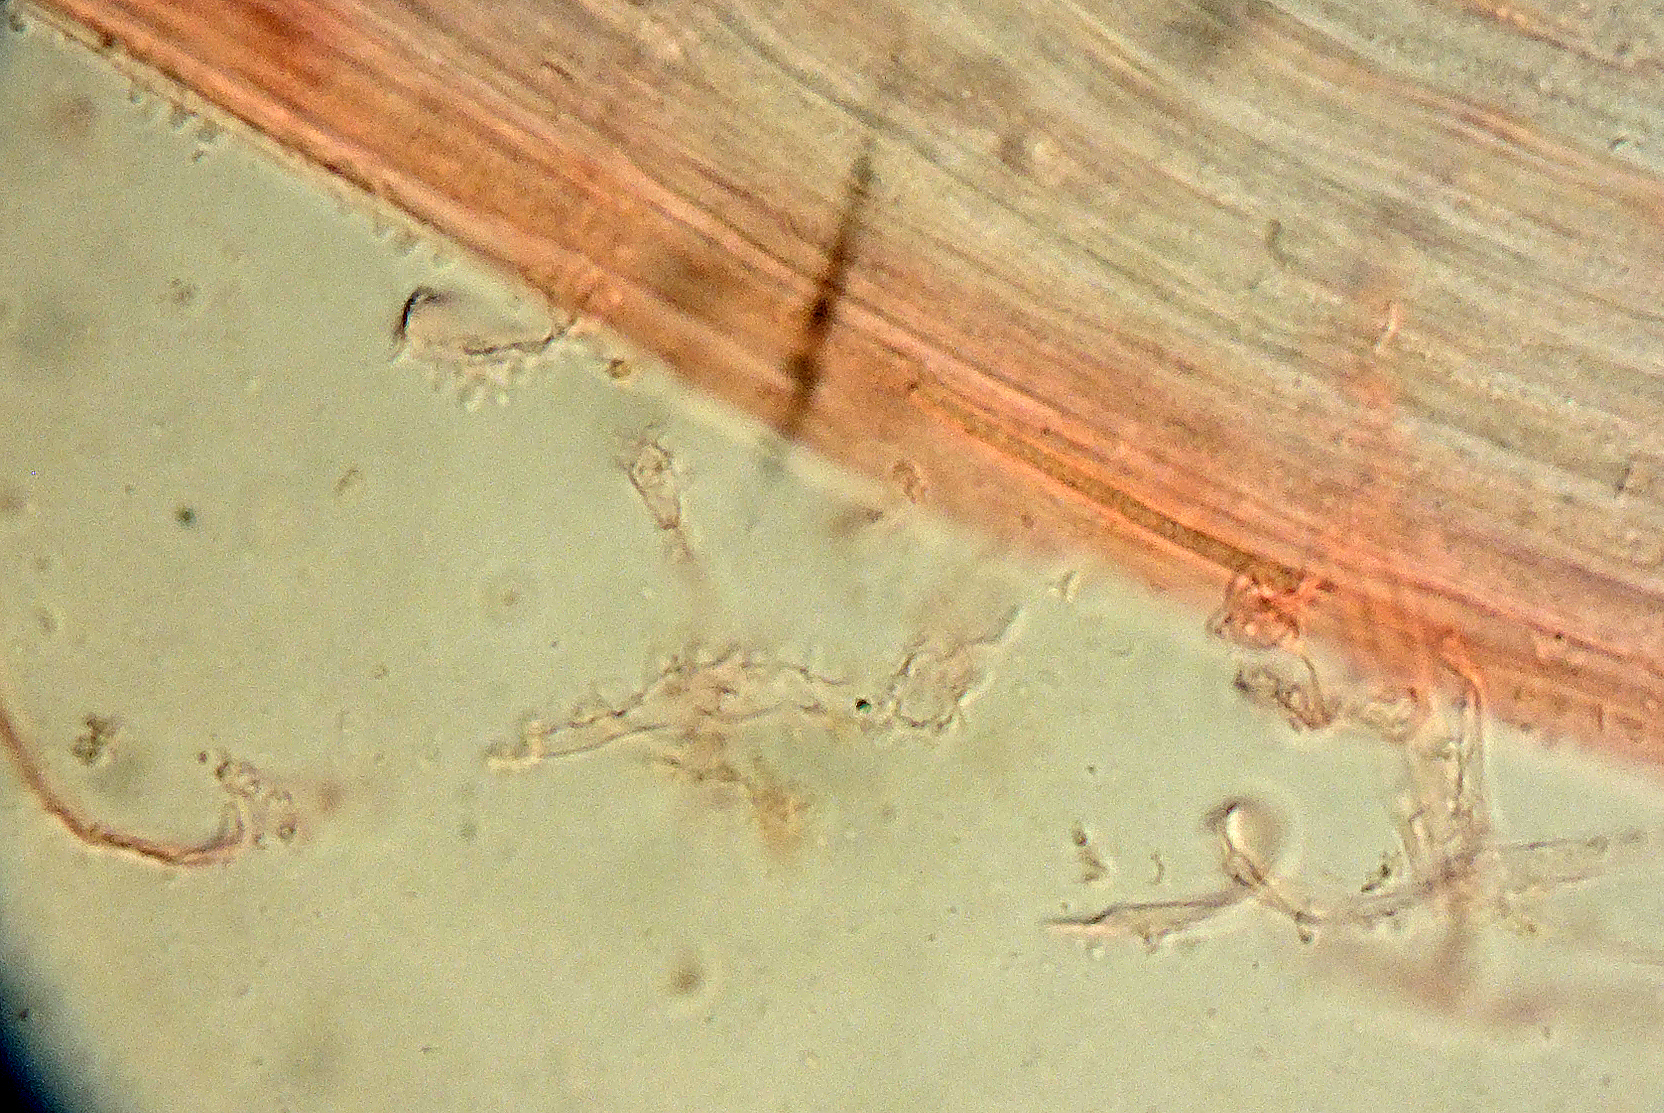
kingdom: Fungi
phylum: Basidiomycota
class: Agaricomycetes
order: Agaricales
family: Mycenaceae
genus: Mycena
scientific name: Mycena riparia
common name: star-huesvamp
